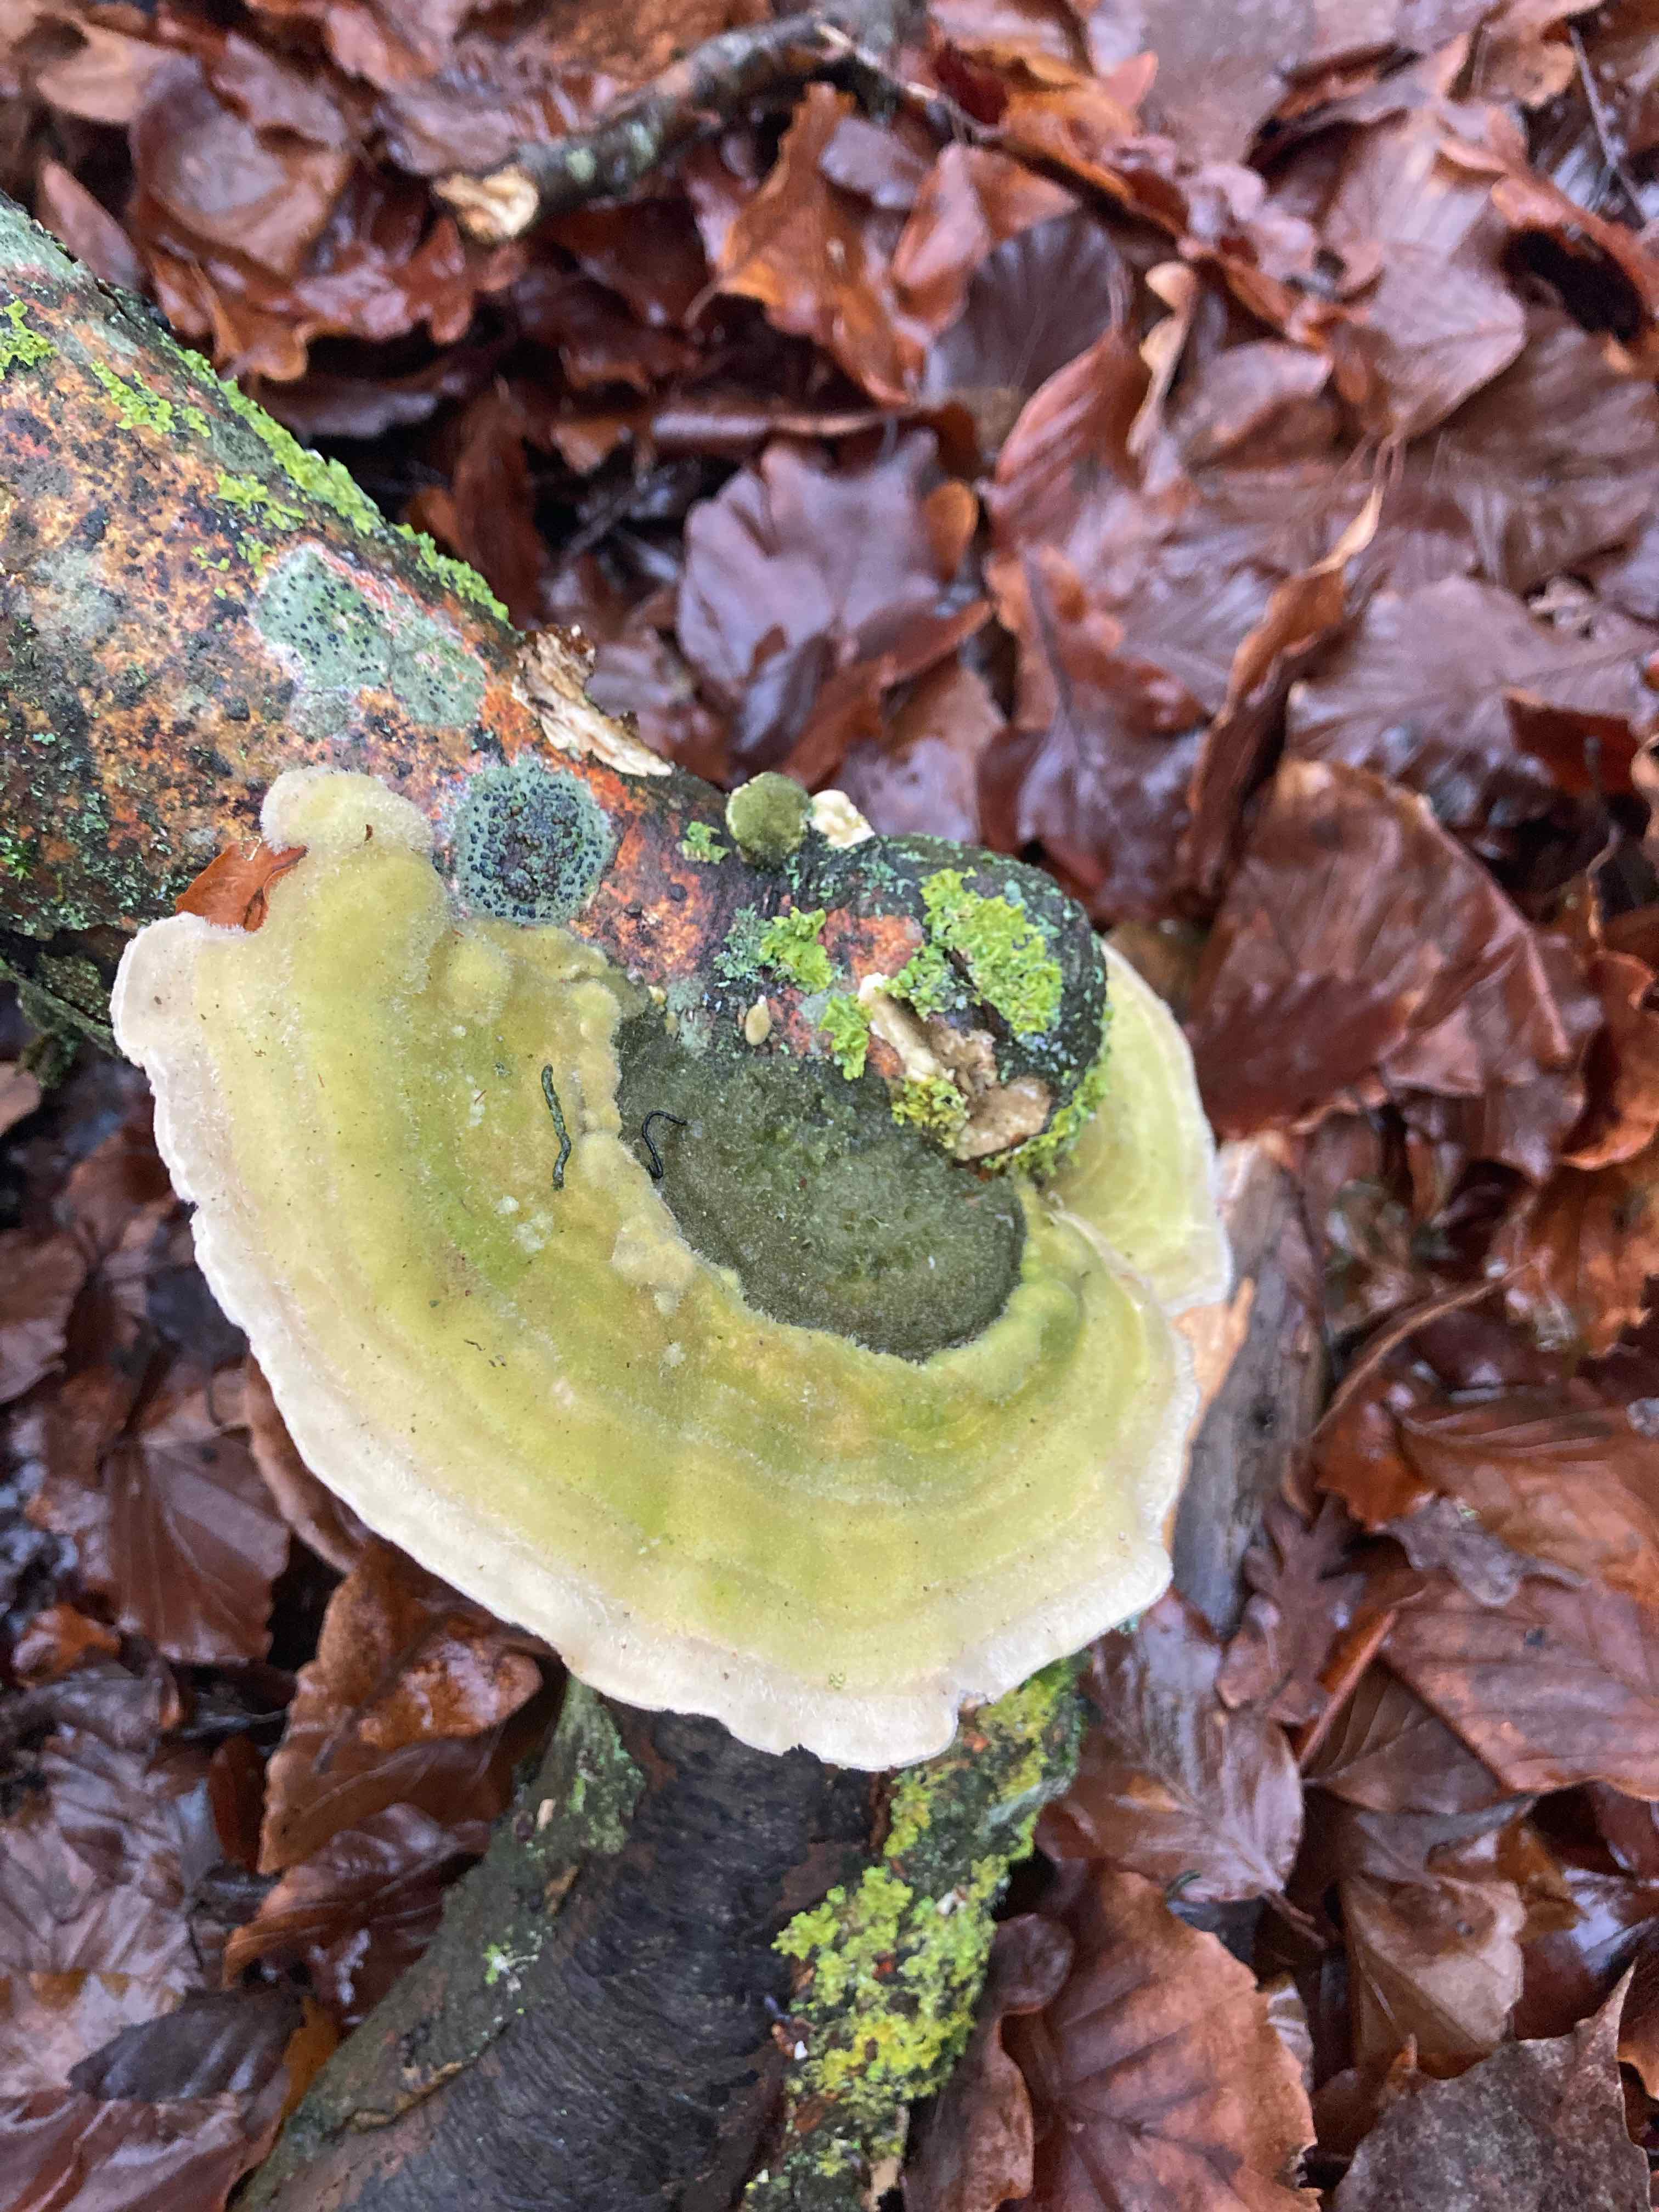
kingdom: Fungi
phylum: Basidiomycota
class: Agaricomycetes
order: Polyporales
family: Polyporaceae
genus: Trametes
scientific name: Trametes hirsuta
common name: håret læderporesvamp
